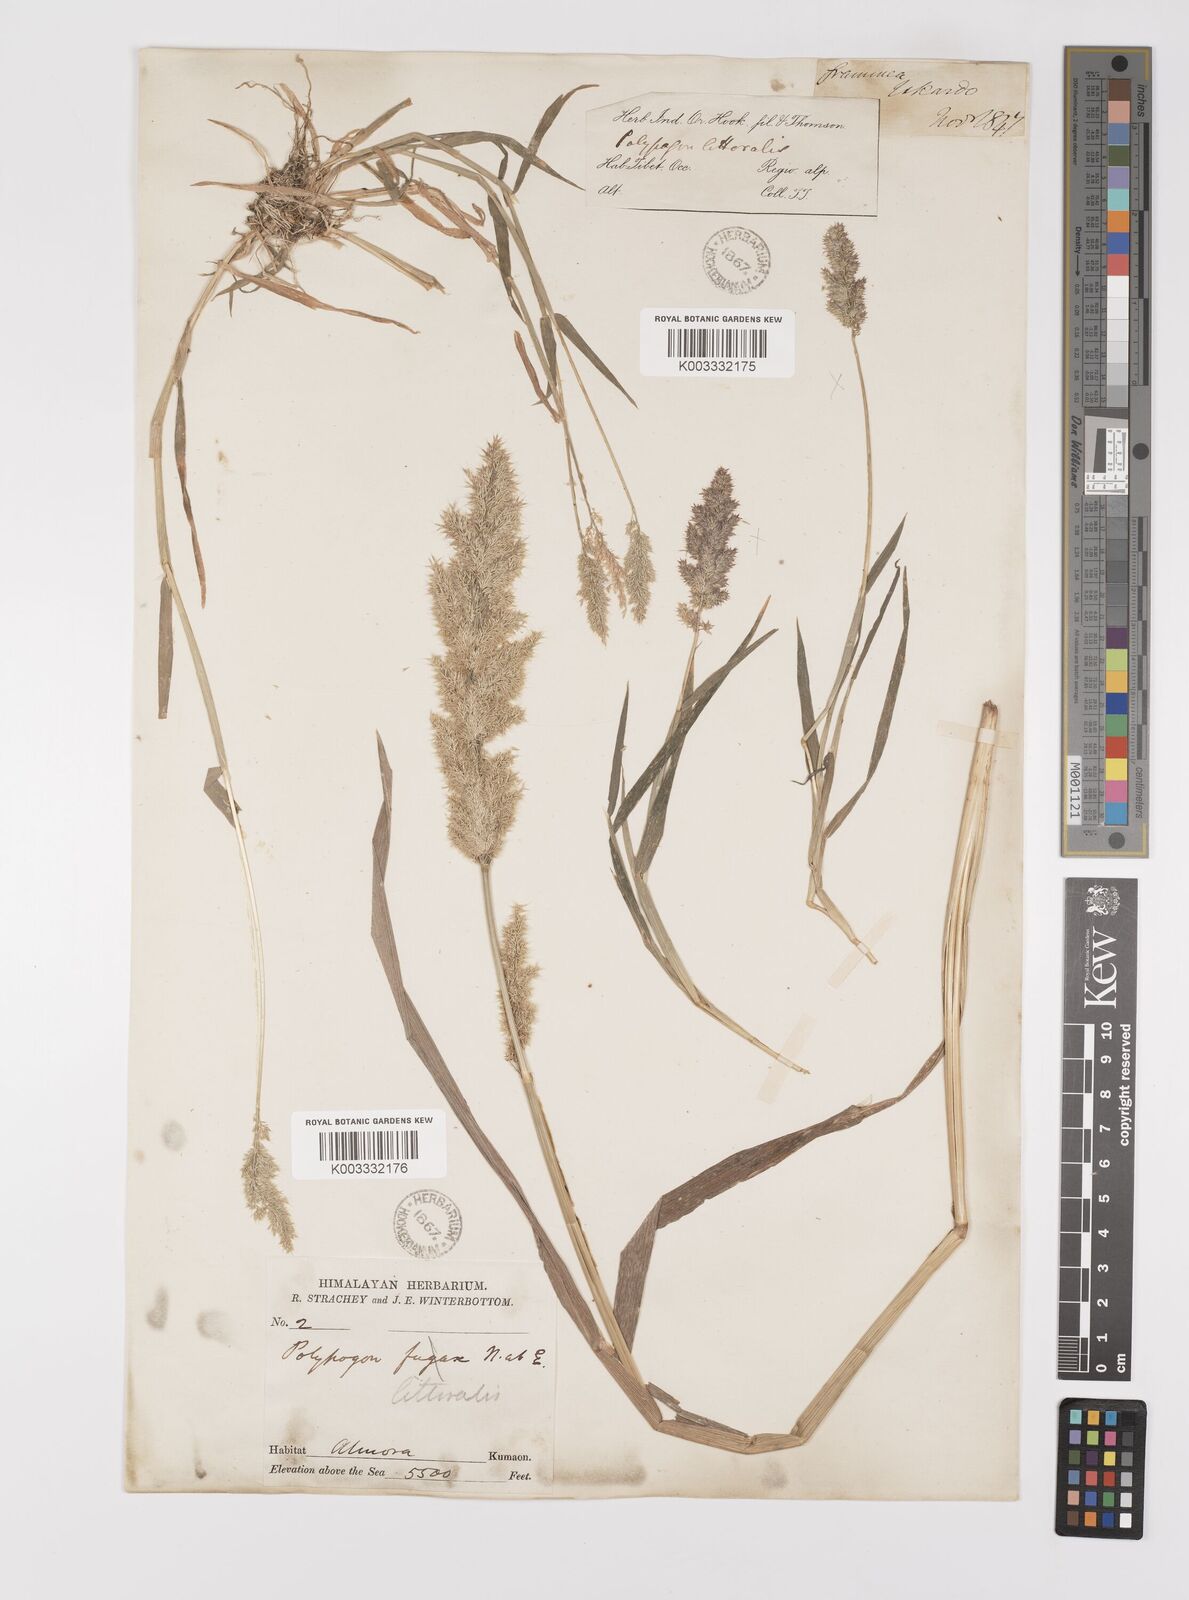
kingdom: Plantae
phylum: Tracheophyta
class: Liliopsida
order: Poales
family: Poaceae
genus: Polypogon
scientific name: Polypogon fugax
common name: Asia minor bluegrass
